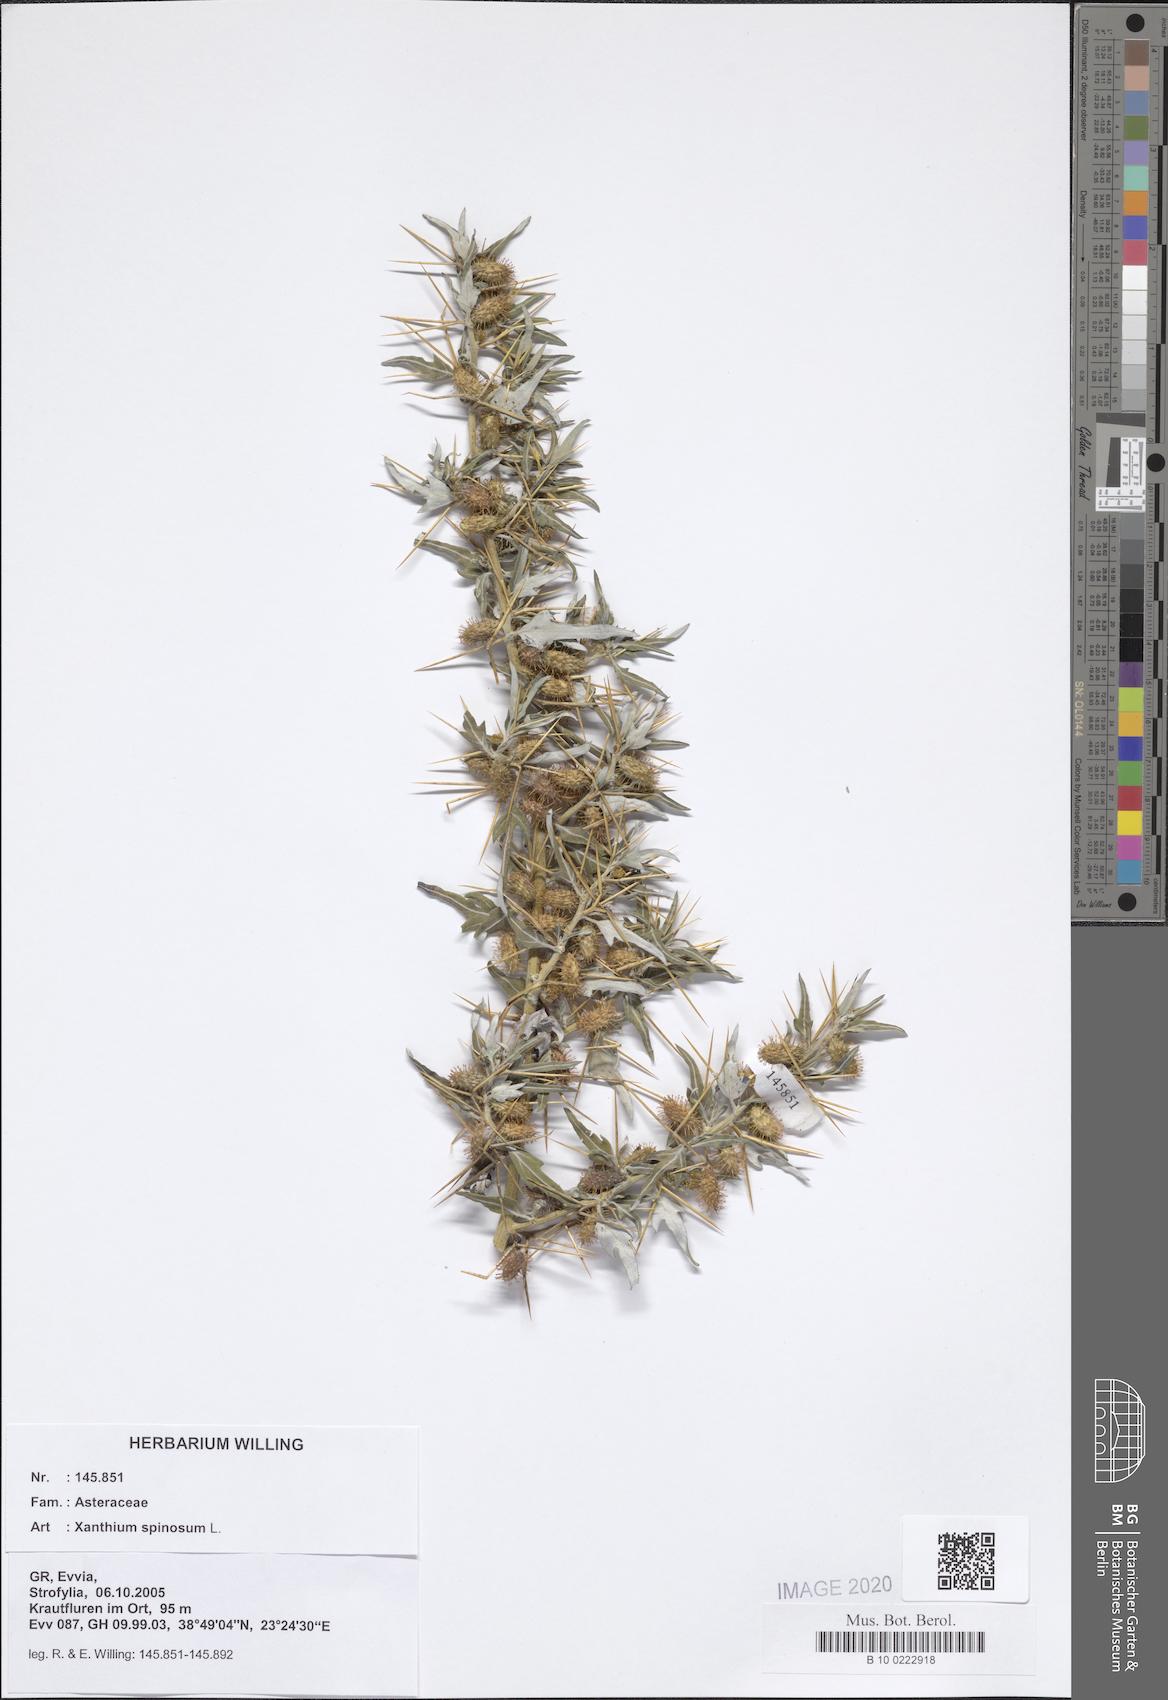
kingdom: Plantae
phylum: Tracheophyta
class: Magnoliopsida
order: Asterales
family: Asteraceae
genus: Xanthium
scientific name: Xanthium spinosum
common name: Spiny cocklebur
